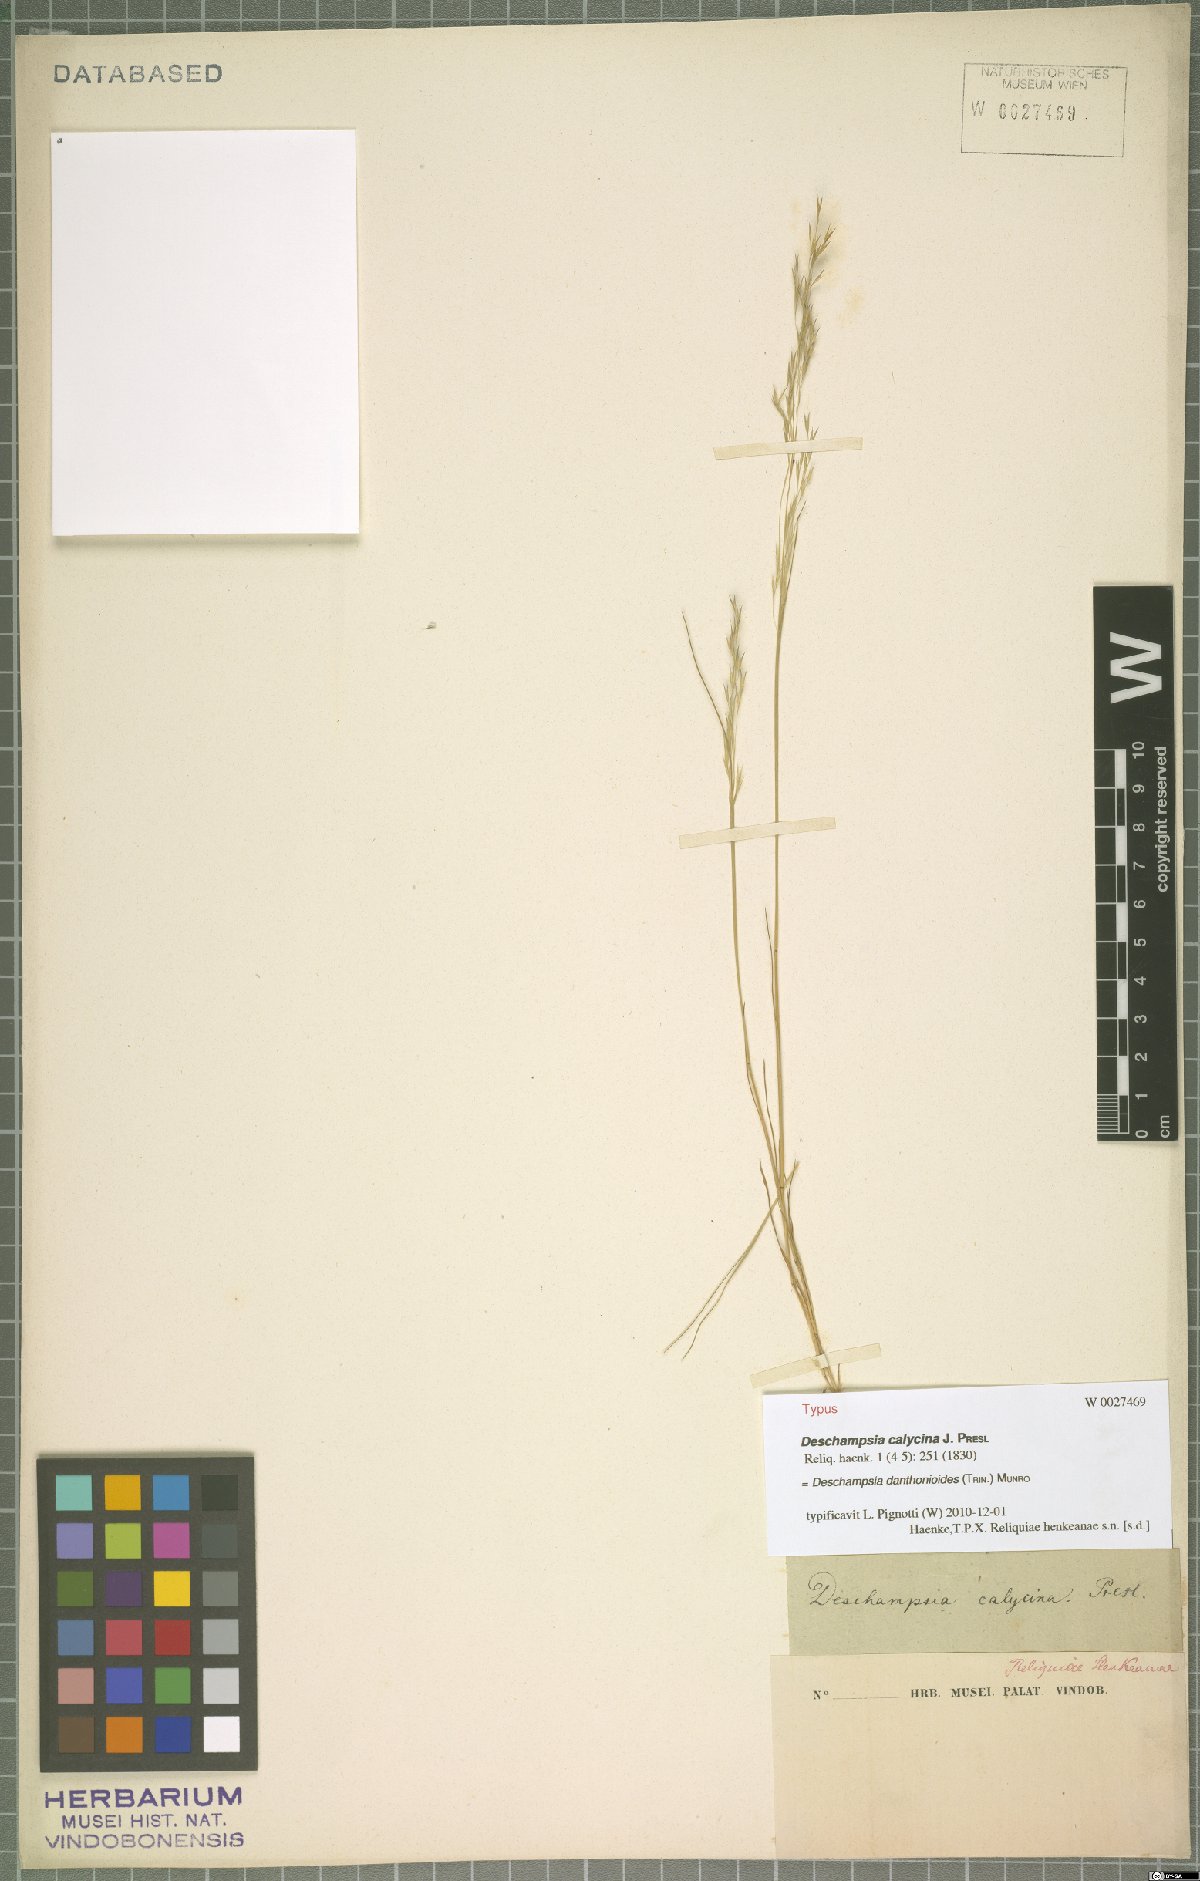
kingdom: Plantae
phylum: Tracheophyta
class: Liliopsida
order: Poales
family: Poaceae
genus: Deschampsia
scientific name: Deschampsia danthonioides
